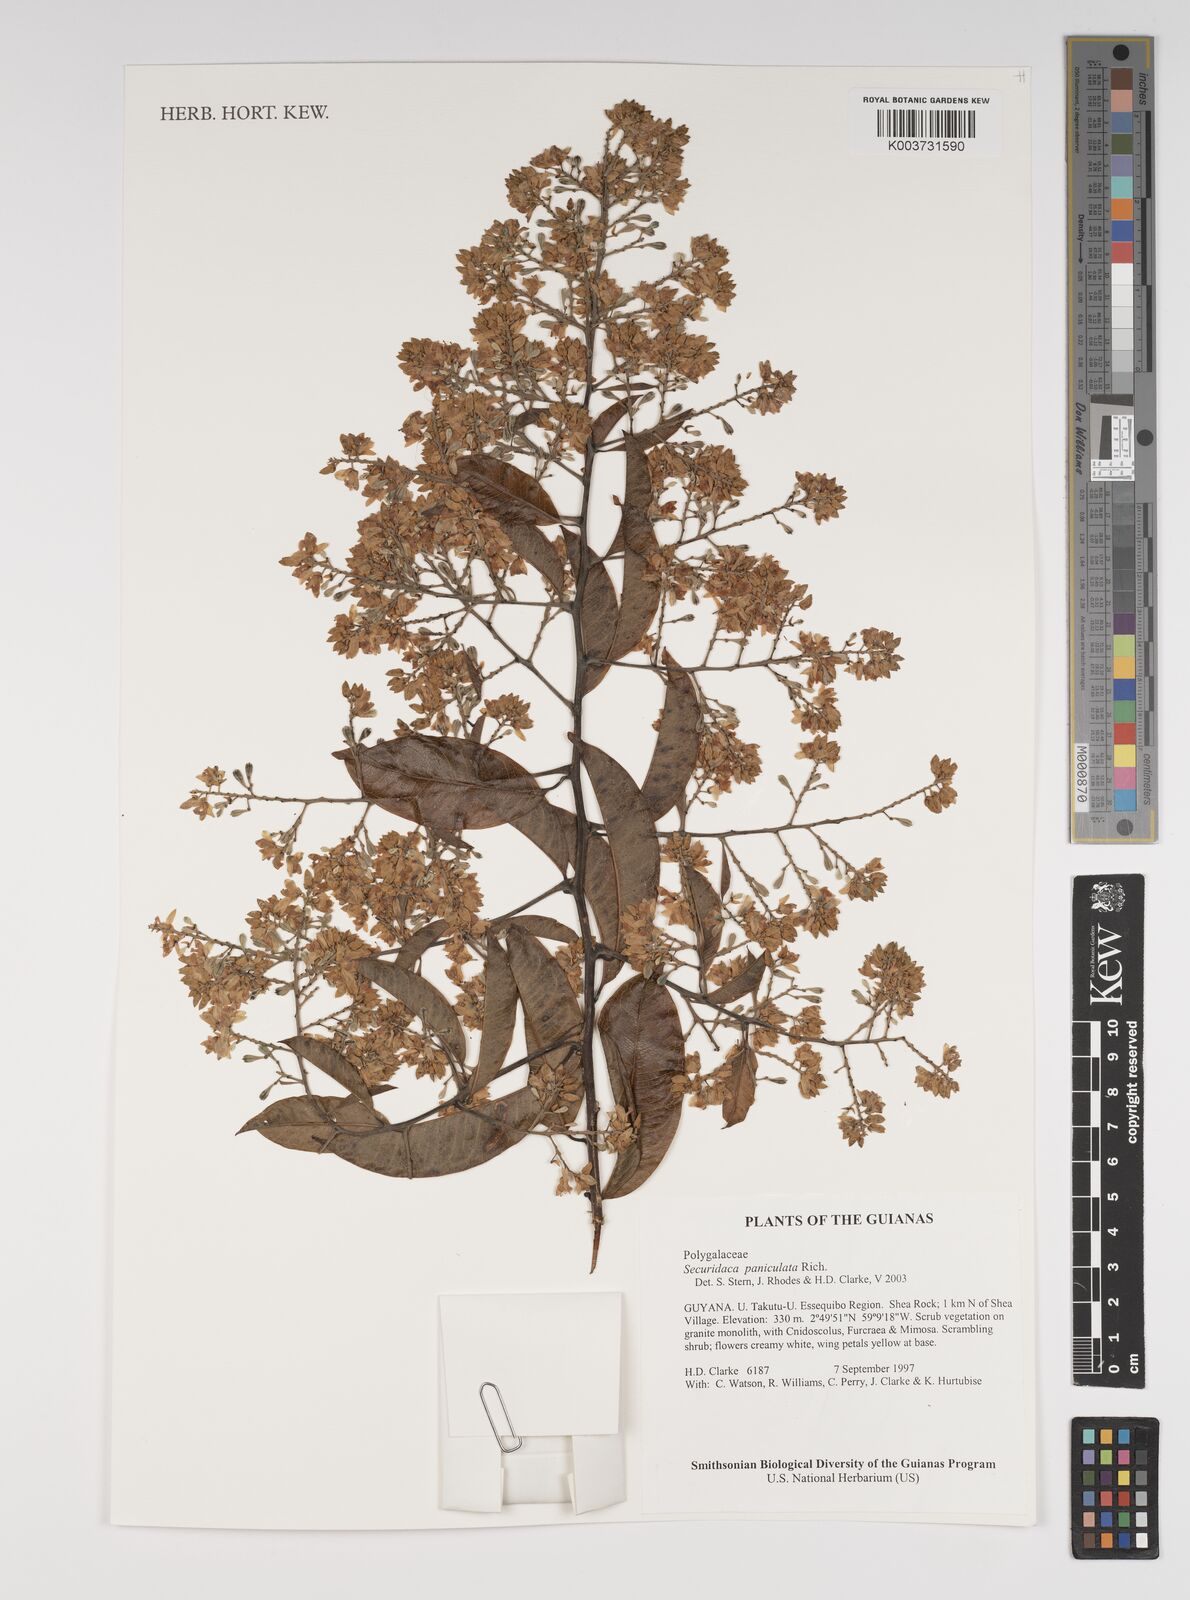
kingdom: Plantae
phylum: Tracheophyta
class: Magnoliopsida
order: Fabales
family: Polygalaceae
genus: Securidaca
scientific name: Securidaca paniculata
